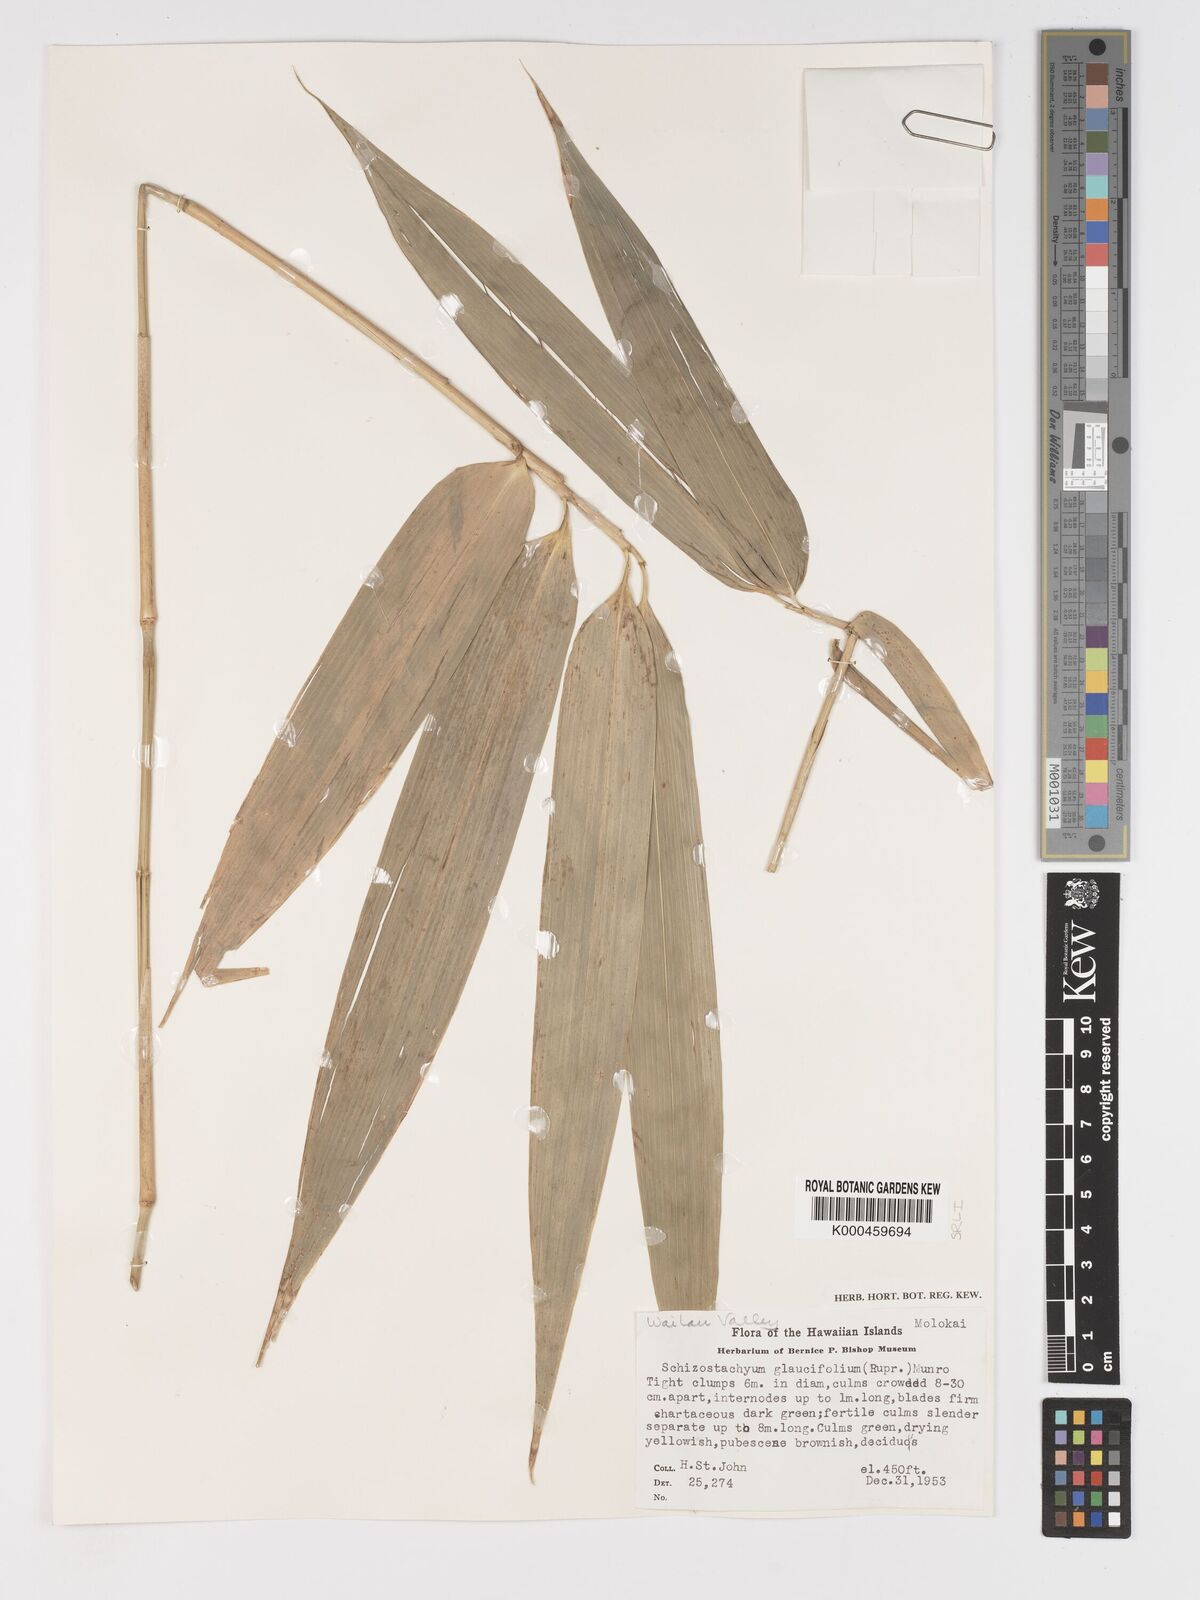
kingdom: Plantae
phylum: Tracheophyta
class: Liliopsida
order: Poales
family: Poaceae
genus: Schizostachyum
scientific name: Schizostachyum glaucifolium
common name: Polynesian 'ohe
